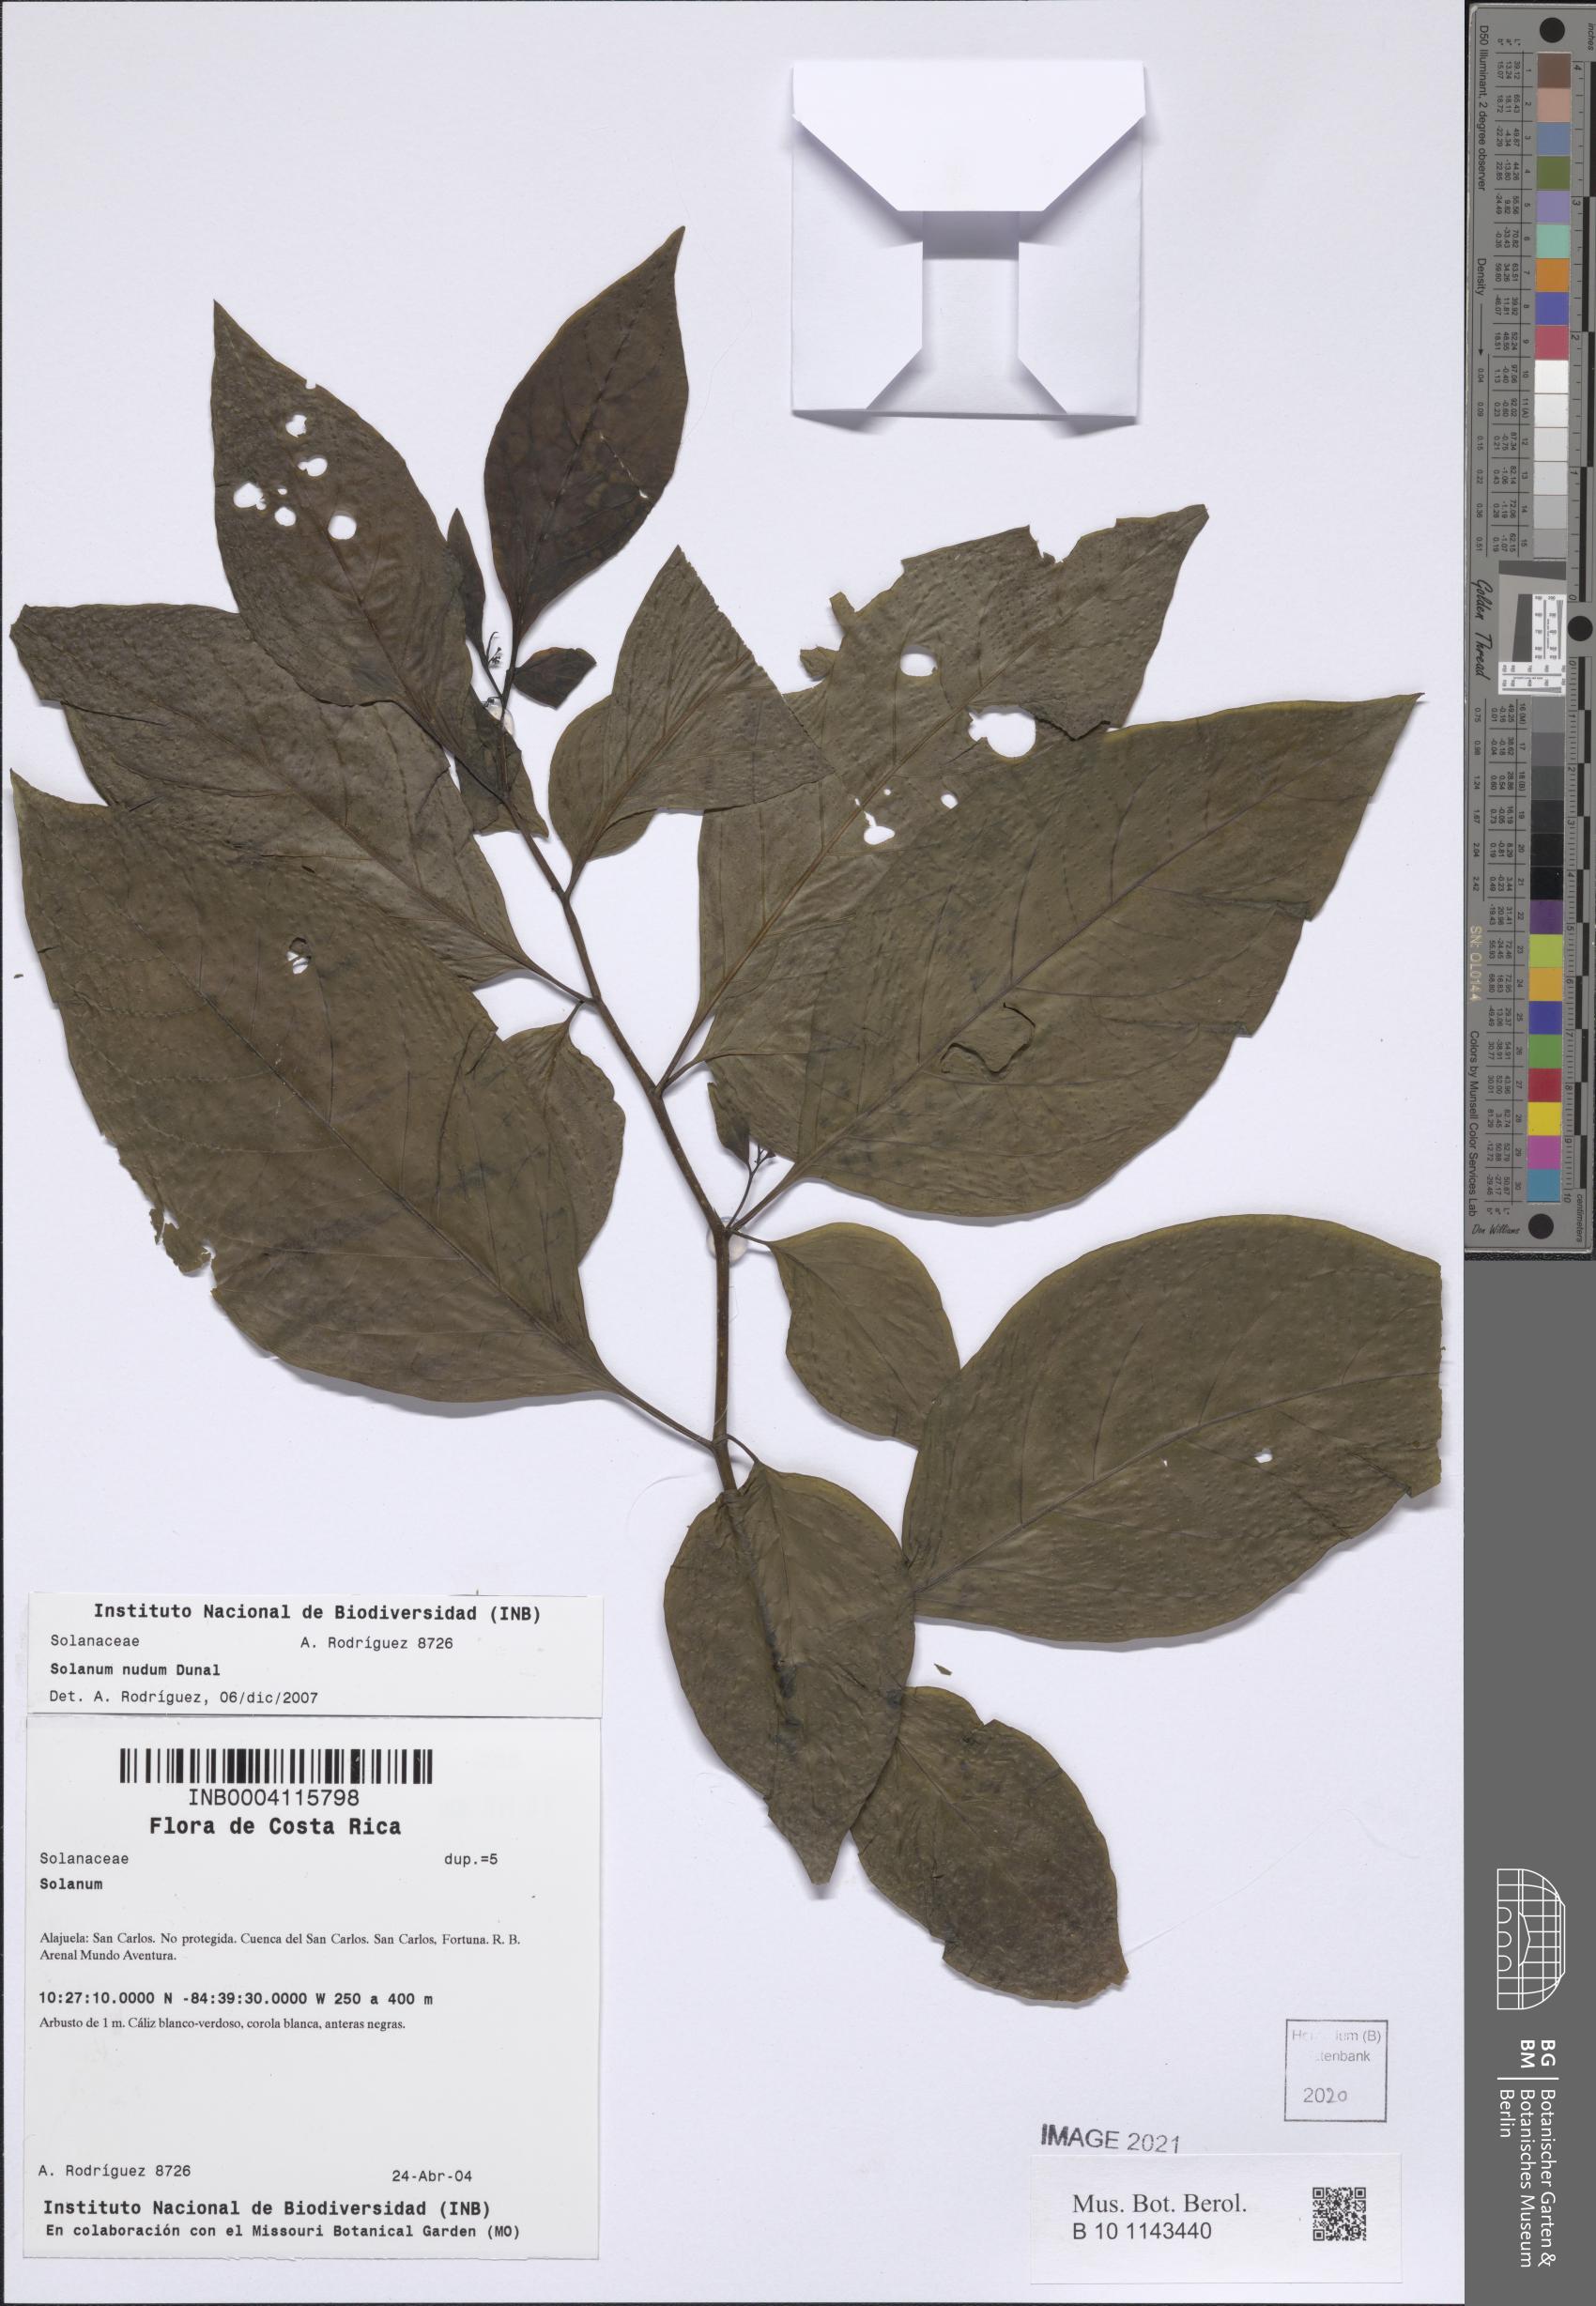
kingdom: Plantae
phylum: Tracheophyta
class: Magnoliopsida
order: Solanales
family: Solanaceae
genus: Solanum
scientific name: Solanum nudum
